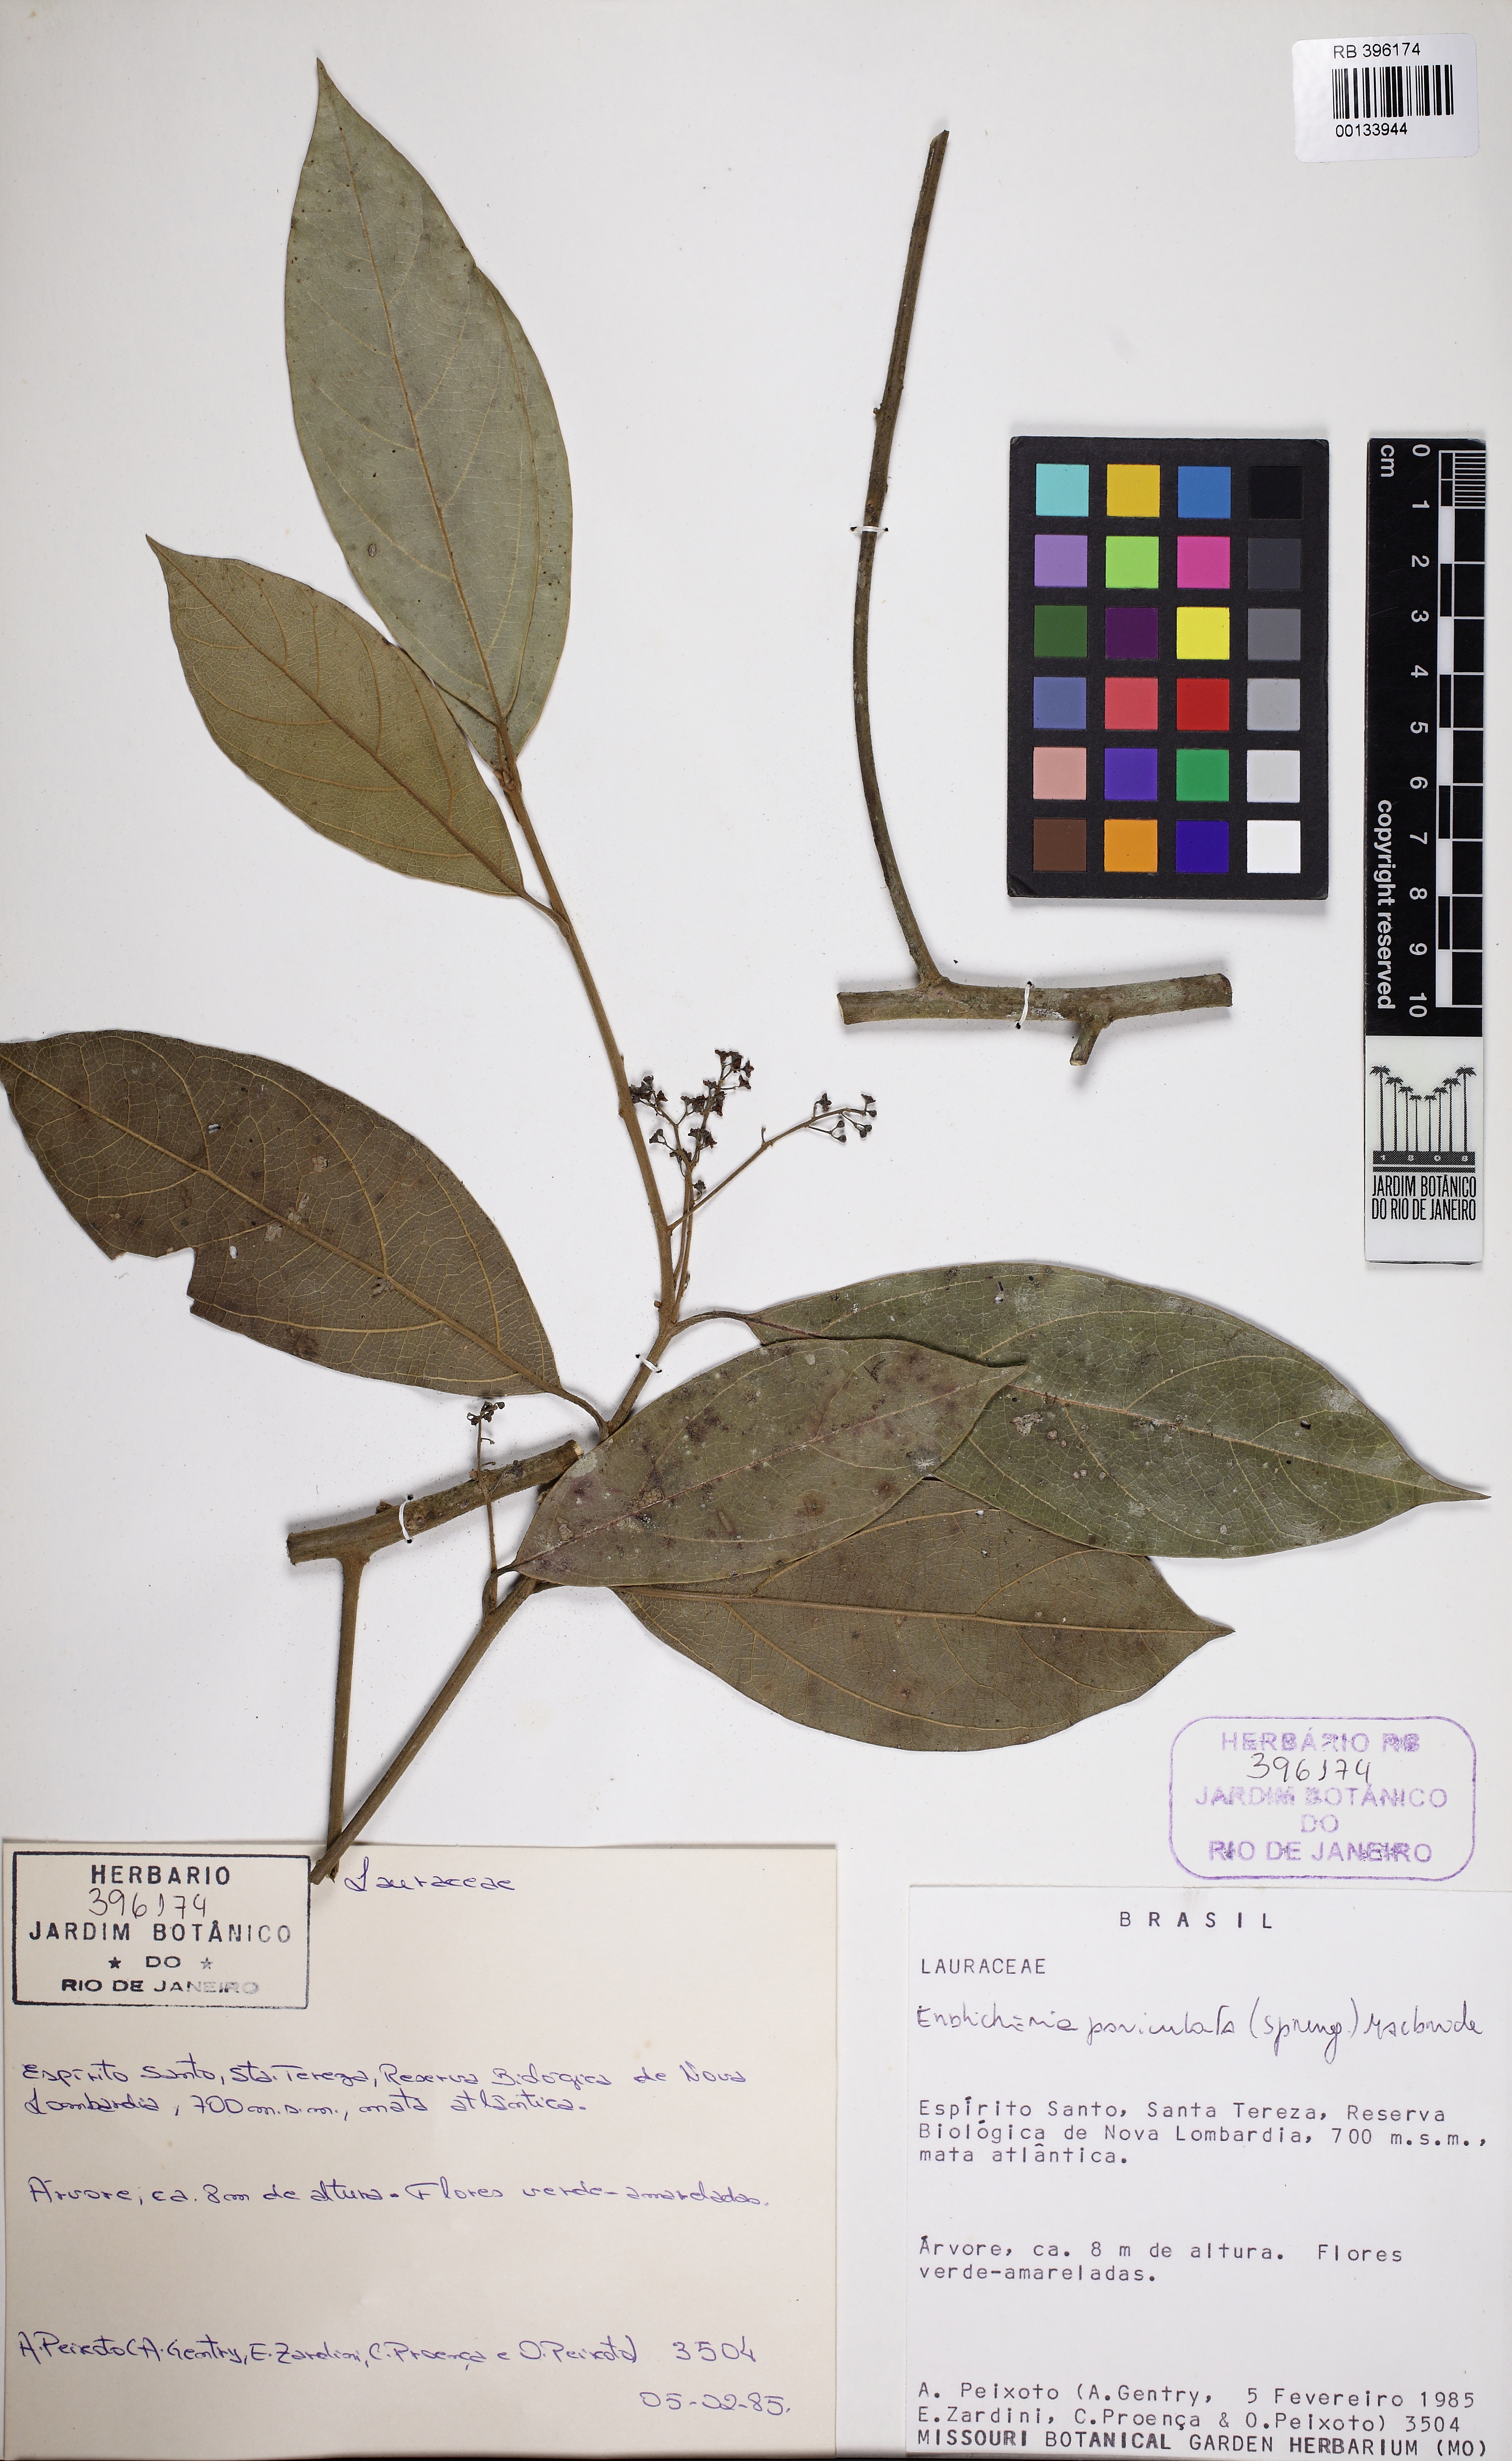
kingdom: Plantae
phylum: Tracheophyta
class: Magnoliopsida
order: Laurales
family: Lauraceae
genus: Endlicheria
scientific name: Endlicheria paniculata
